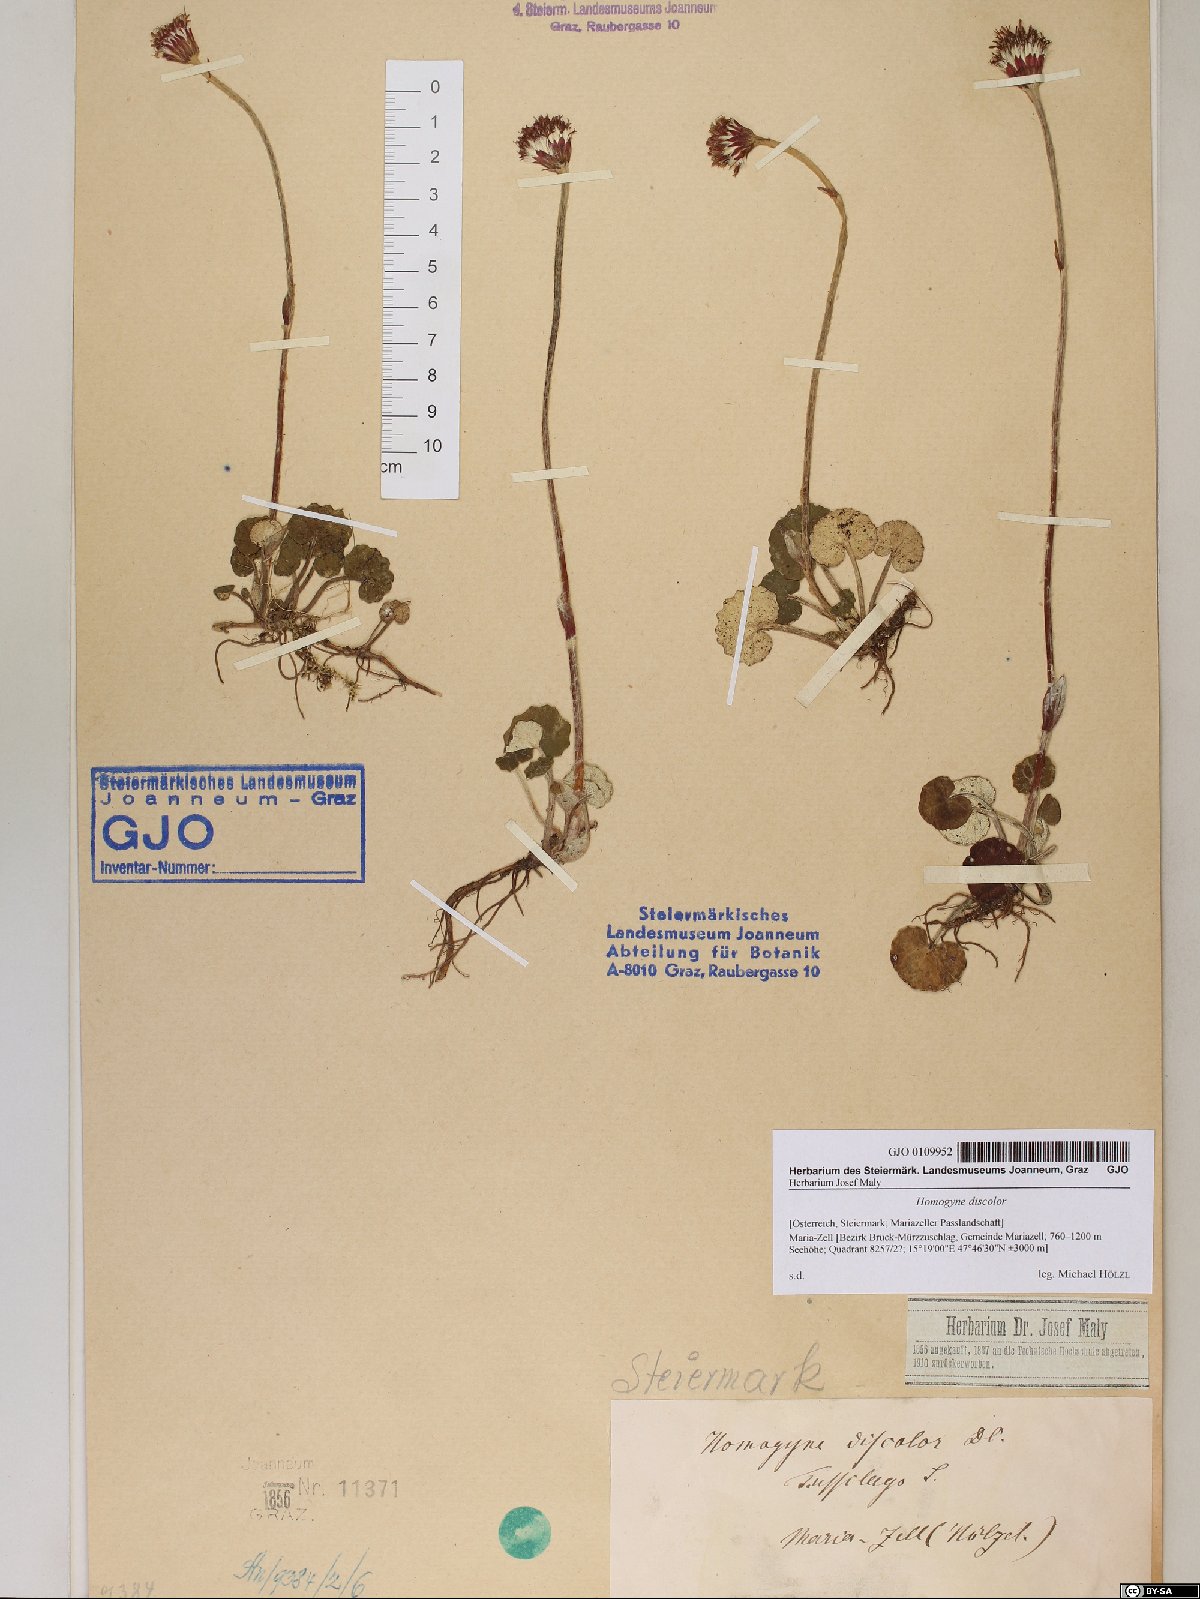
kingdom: Plantae
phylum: Tracheophyta
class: Magnoliopsida
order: Asterales
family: Asteraceae
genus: Homogyne
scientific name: Homogyne discolor
